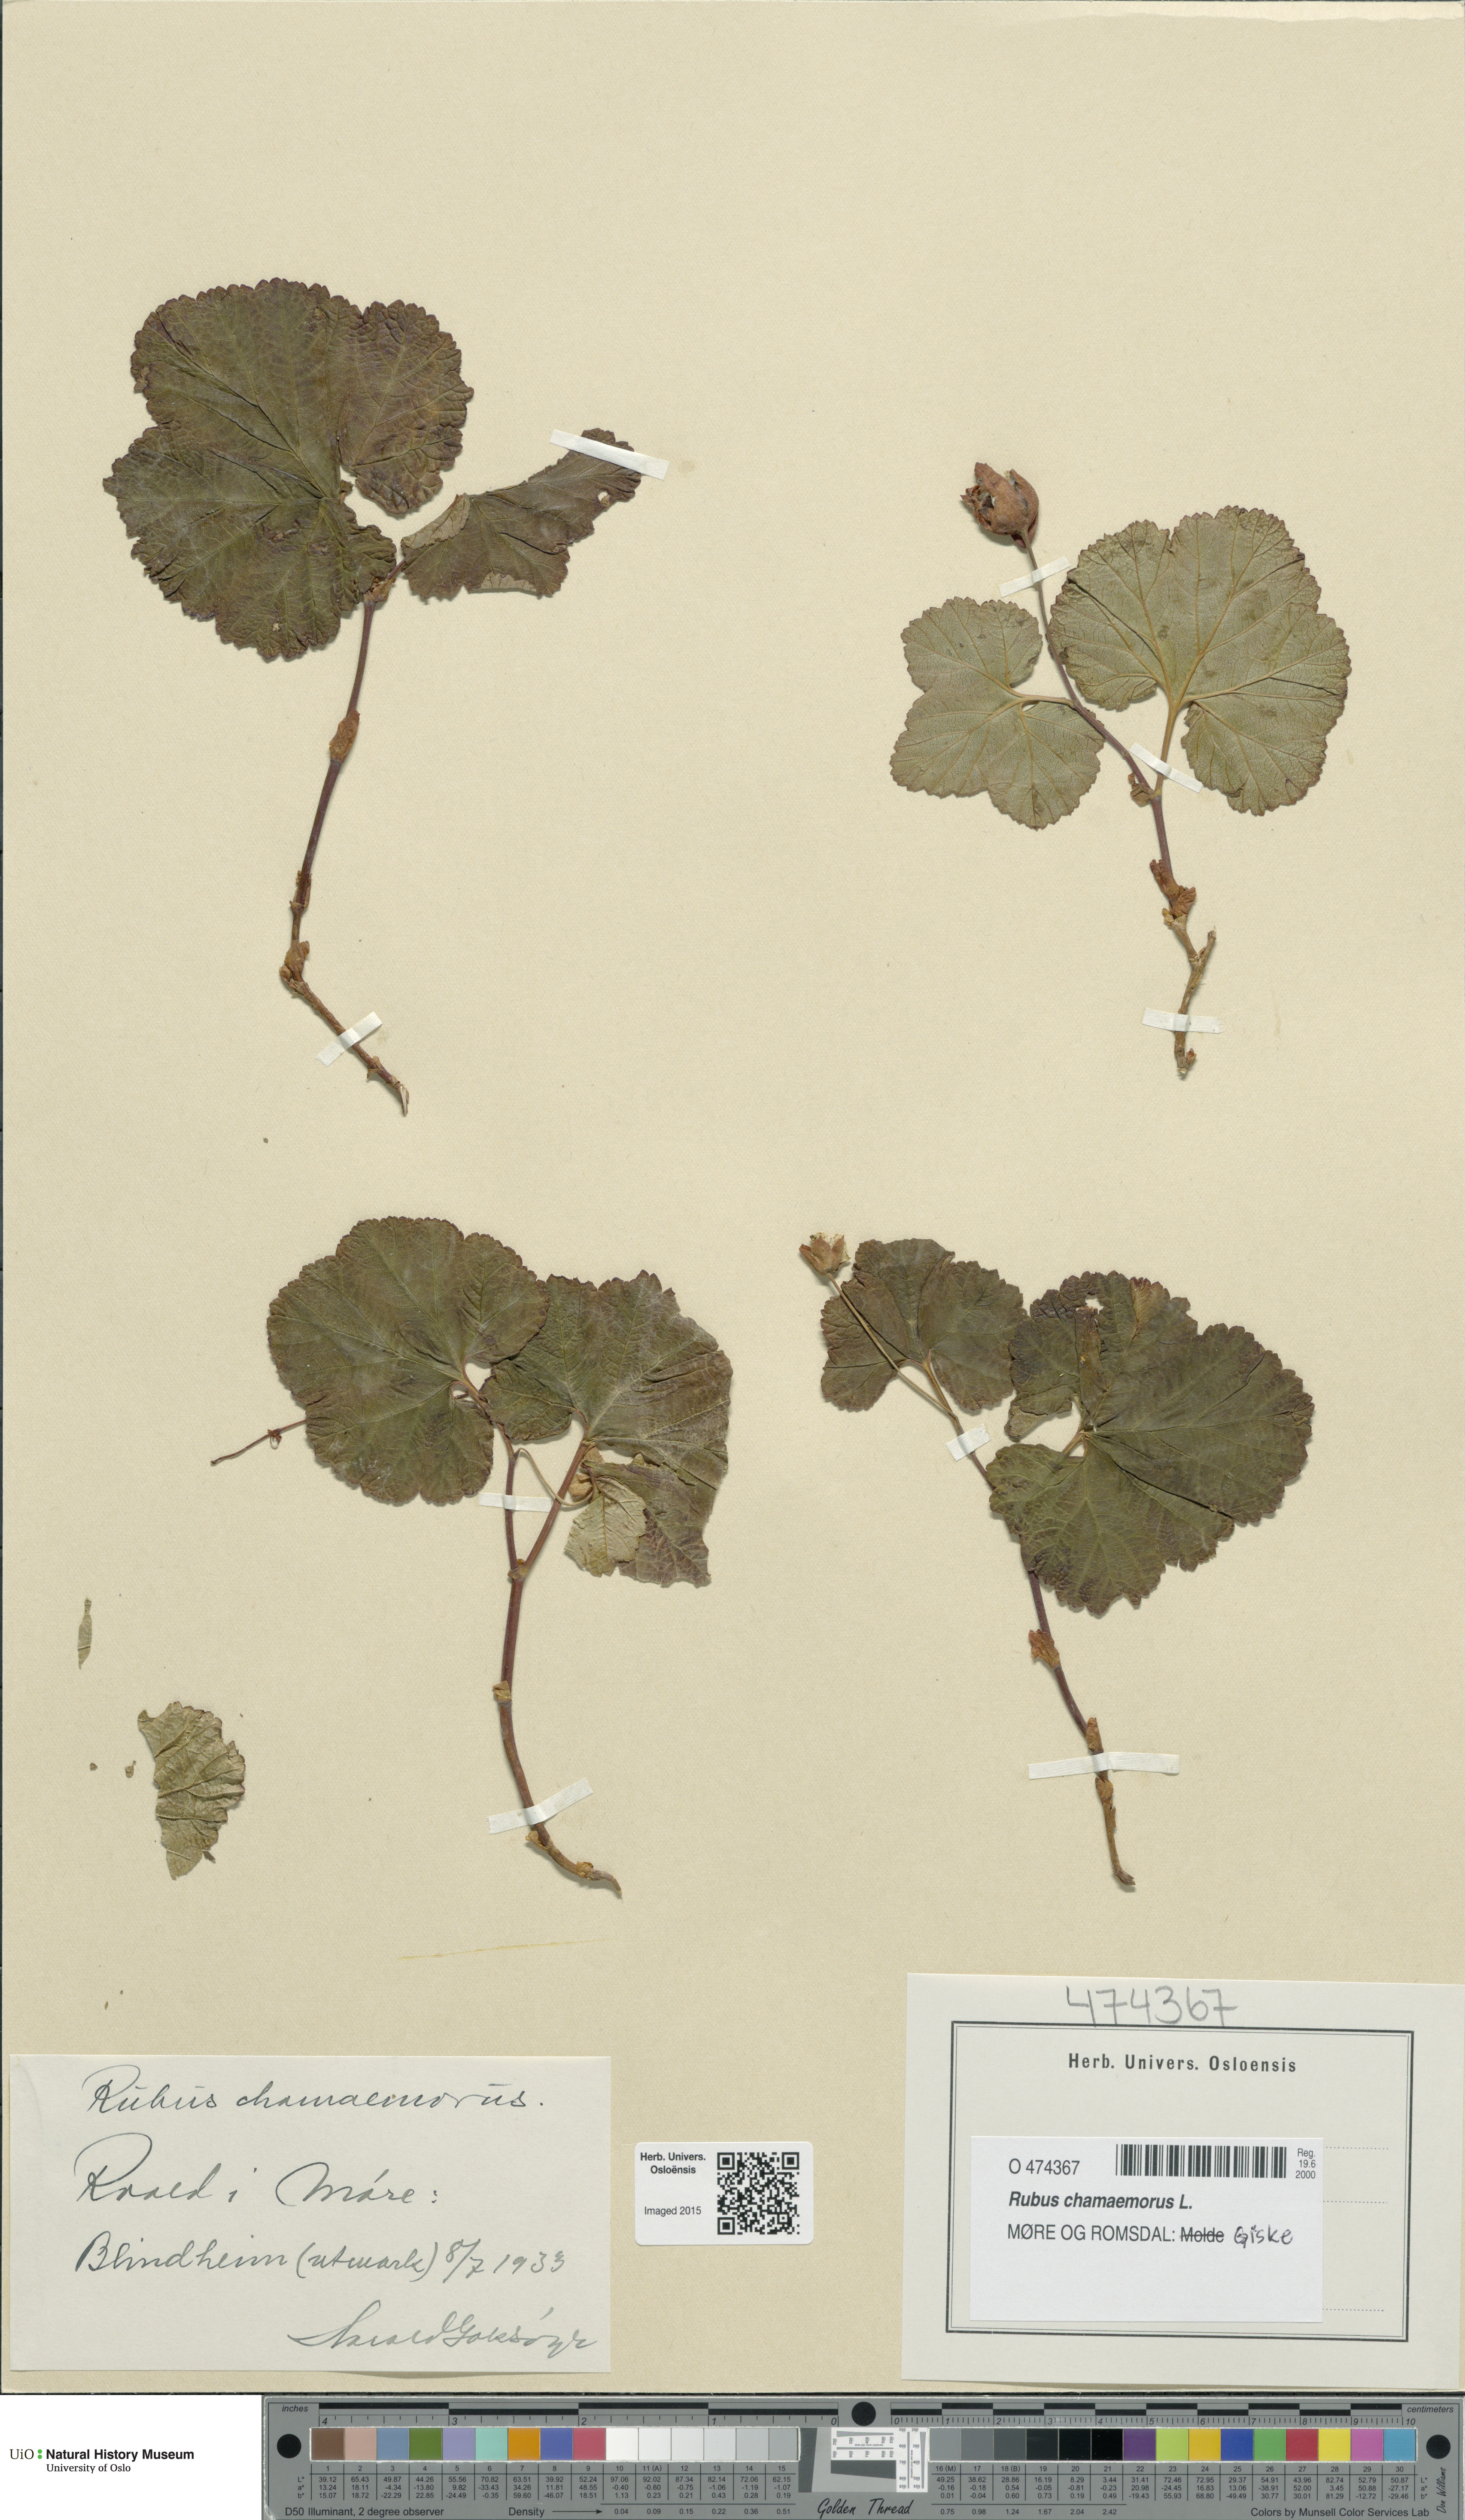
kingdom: Plantae
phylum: Tracheophyta
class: Magnoliopsida
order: Rosales
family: Rosaceae
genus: Rubus
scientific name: Rubus chamaemorus
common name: Cloudberry
